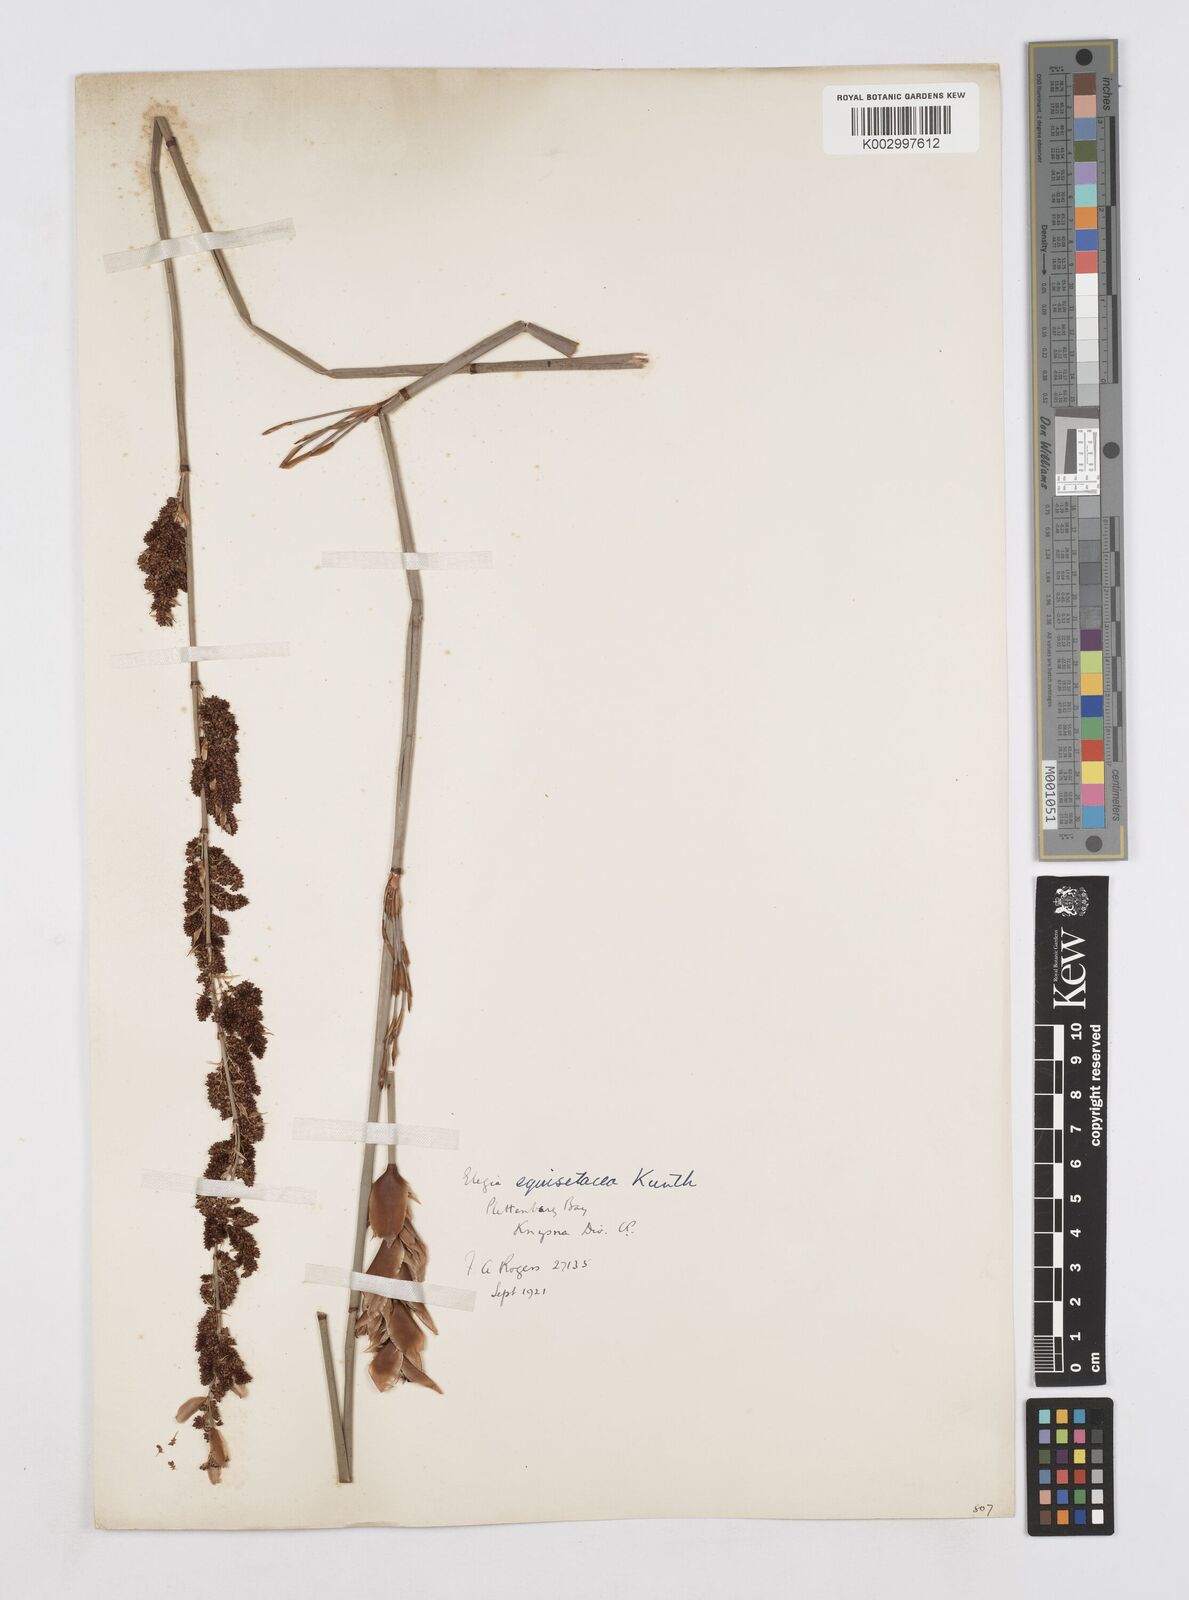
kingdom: Plantae
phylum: Tracheophyta
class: Liliopsida
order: Poales
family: Restionaceae
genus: Elegia
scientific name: Elegia equisetacea
